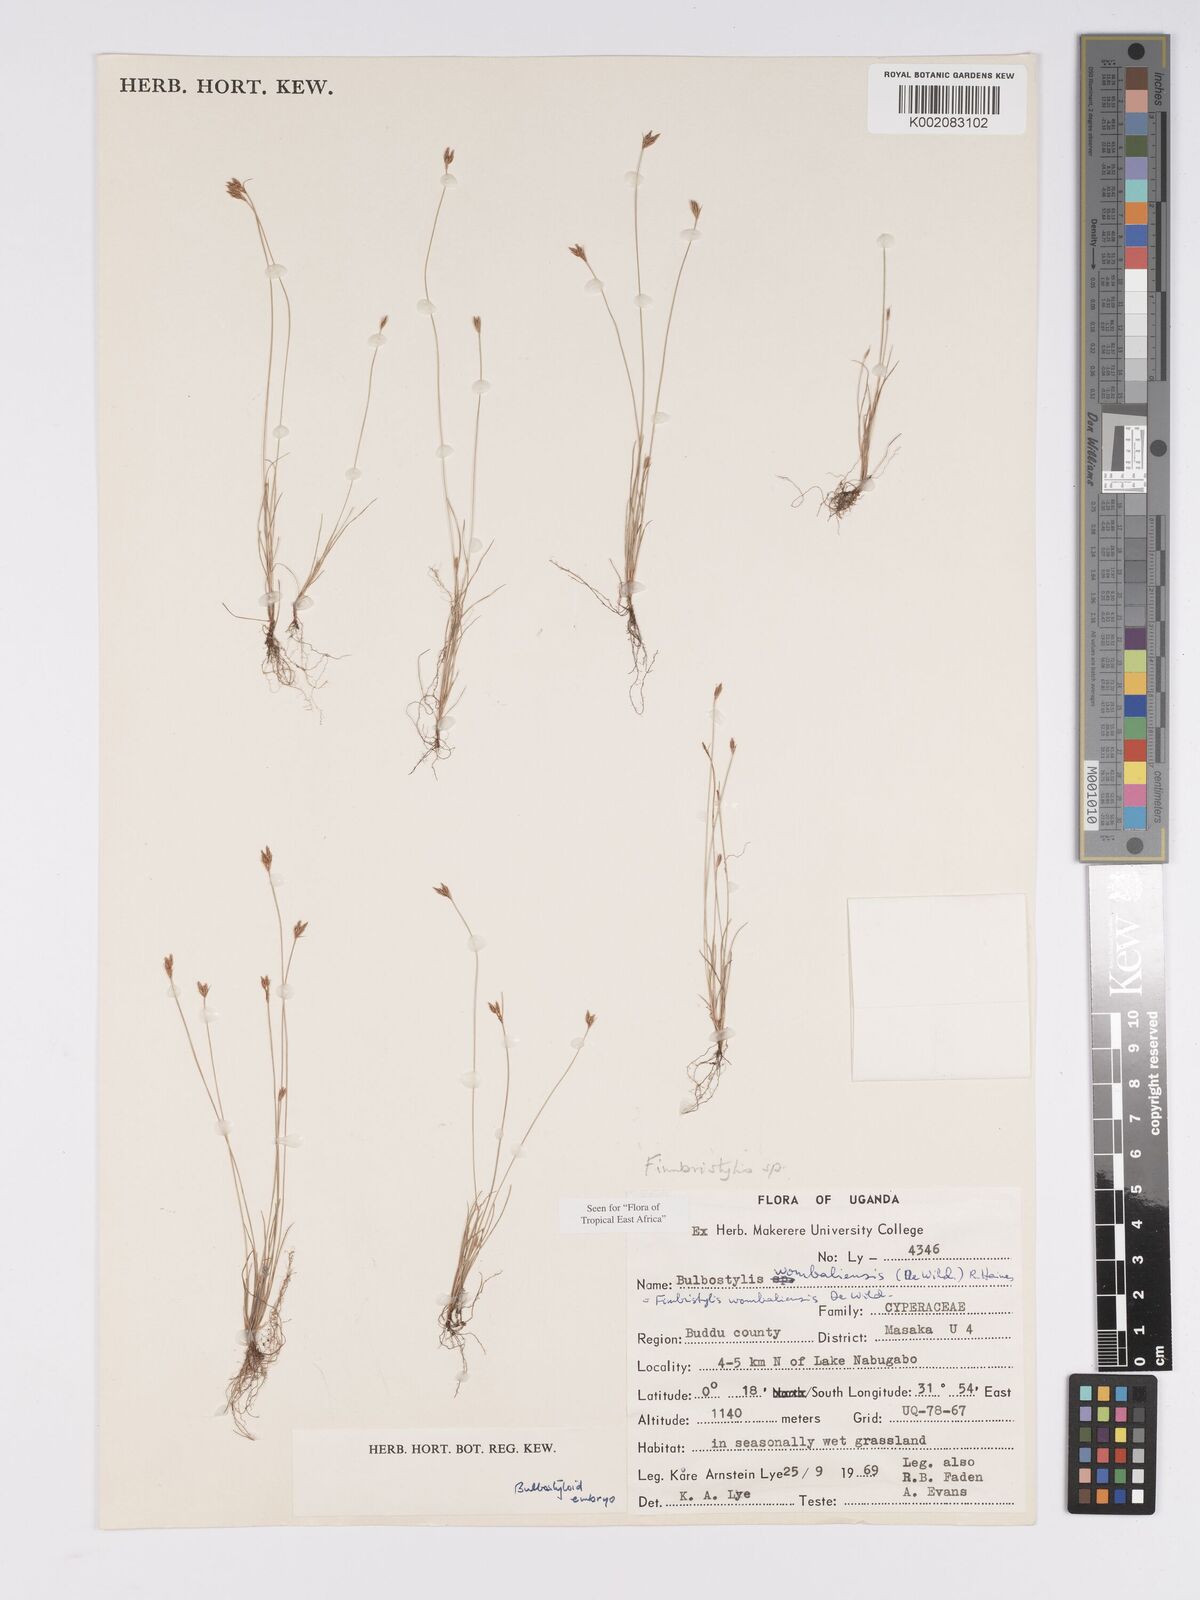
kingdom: Plantae
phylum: Tracheophyta
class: Liliopsida
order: Poales
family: Cyperaceae
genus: Bulbostylis
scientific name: Bulbostylis
